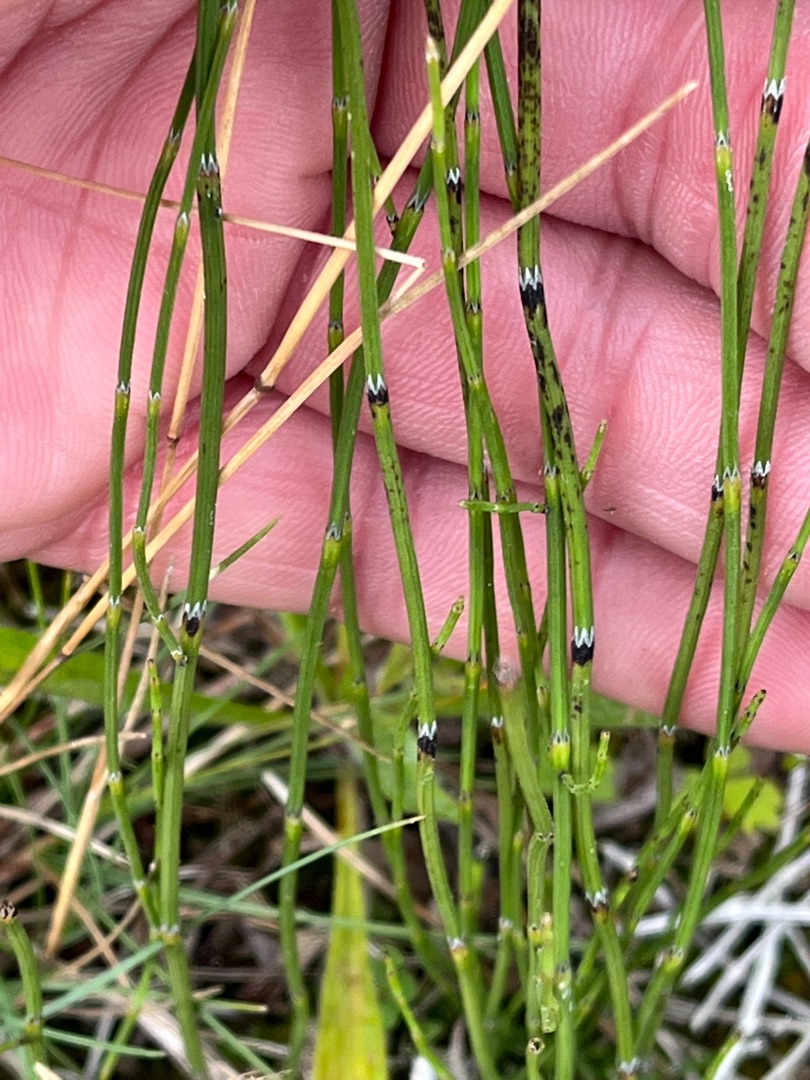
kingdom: Plantae
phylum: Tracheophyta
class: Polypodiopsida
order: Equisetales
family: Equisetaceae
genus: Equisetum
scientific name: Equisetum palustre
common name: Kær-padderok
